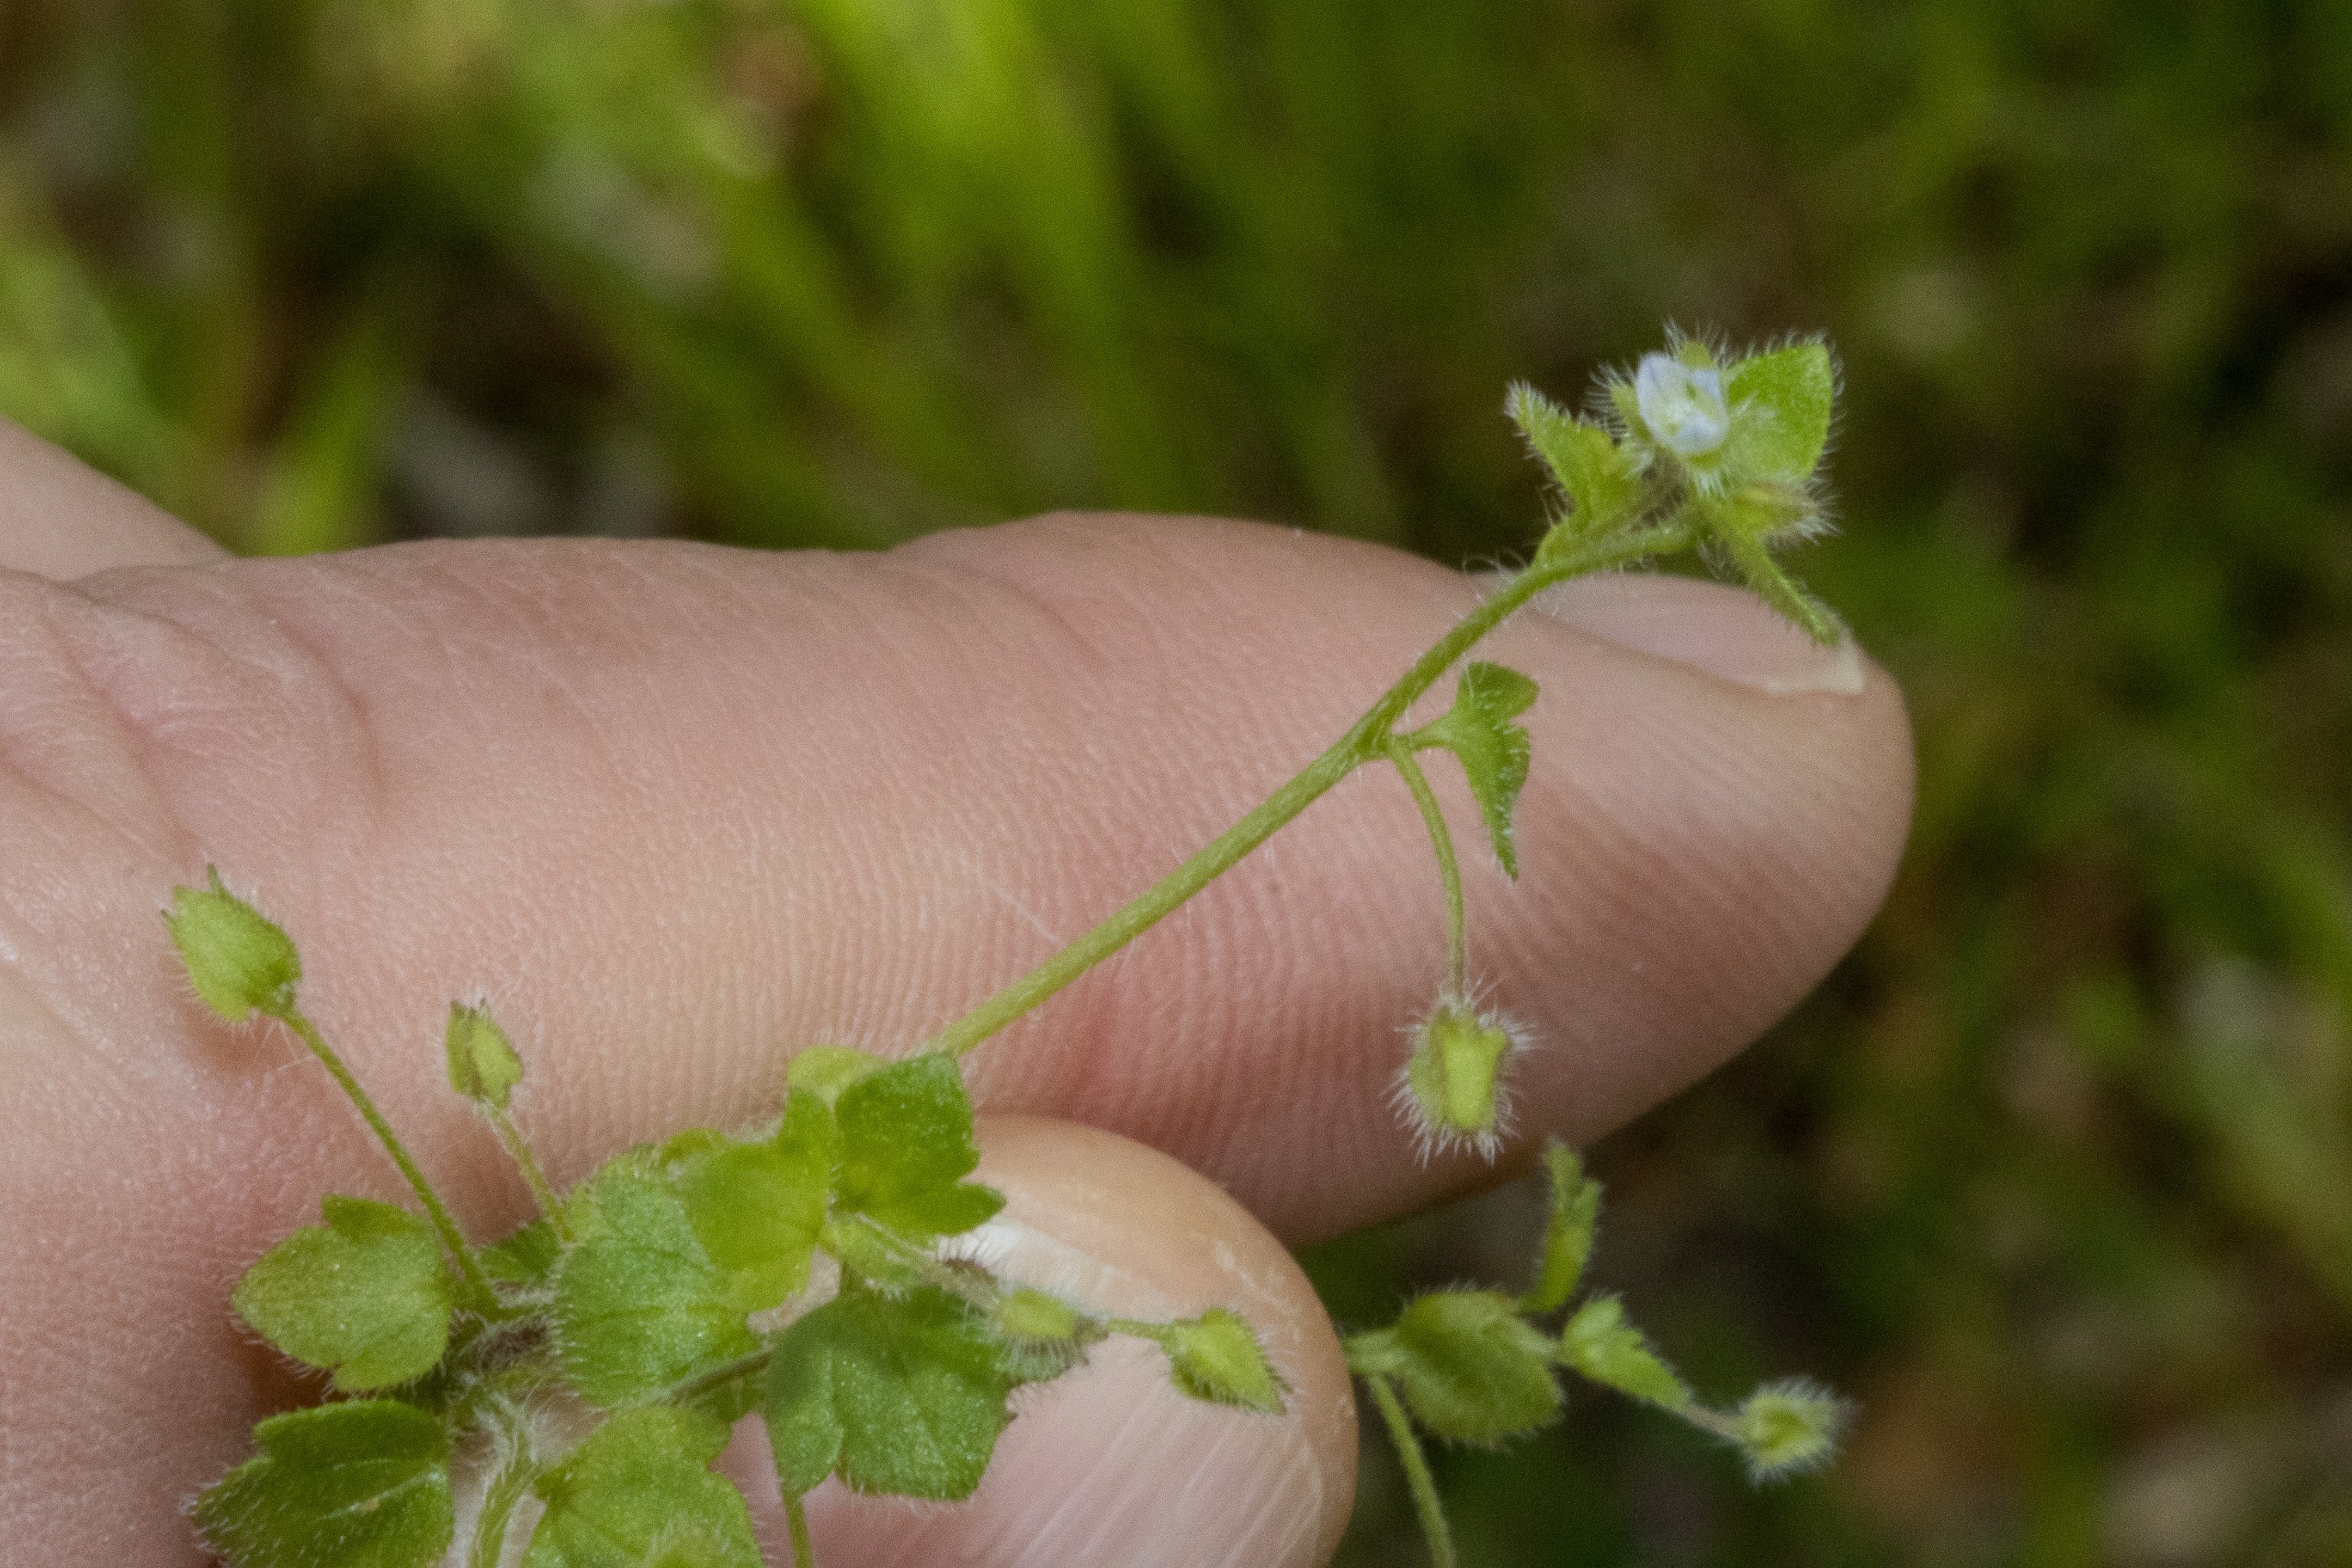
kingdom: Plantae
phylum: Tracheophyta
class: Magnoliopsida
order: Lamiales
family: Plantaginaceae
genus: Veronica
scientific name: Veronica hederifolia
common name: Vedbend-ærenpris
